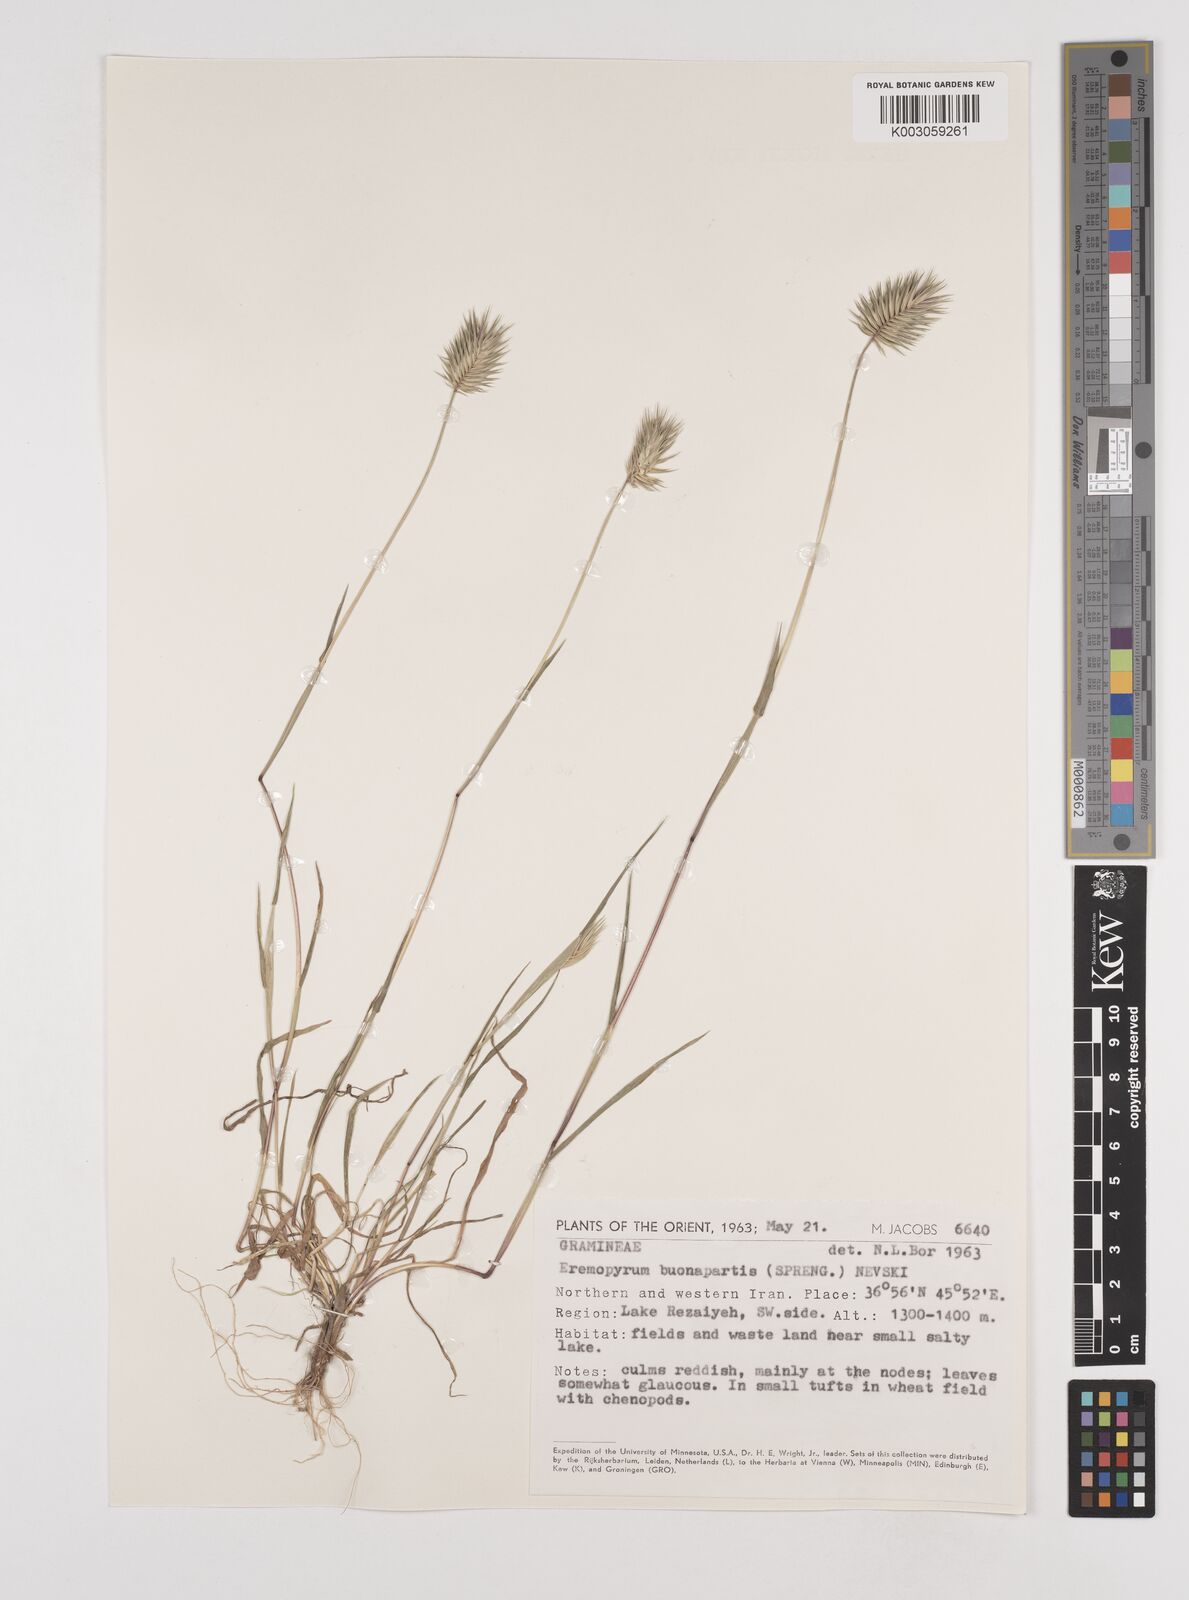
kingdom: Plantae
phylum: Tracheophyta
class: Liliopsida
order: Poales
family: Poaceae
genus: Eremopyrum
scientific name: Eremopyrum bonaepartis
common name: Tapertip false wheatgrass
